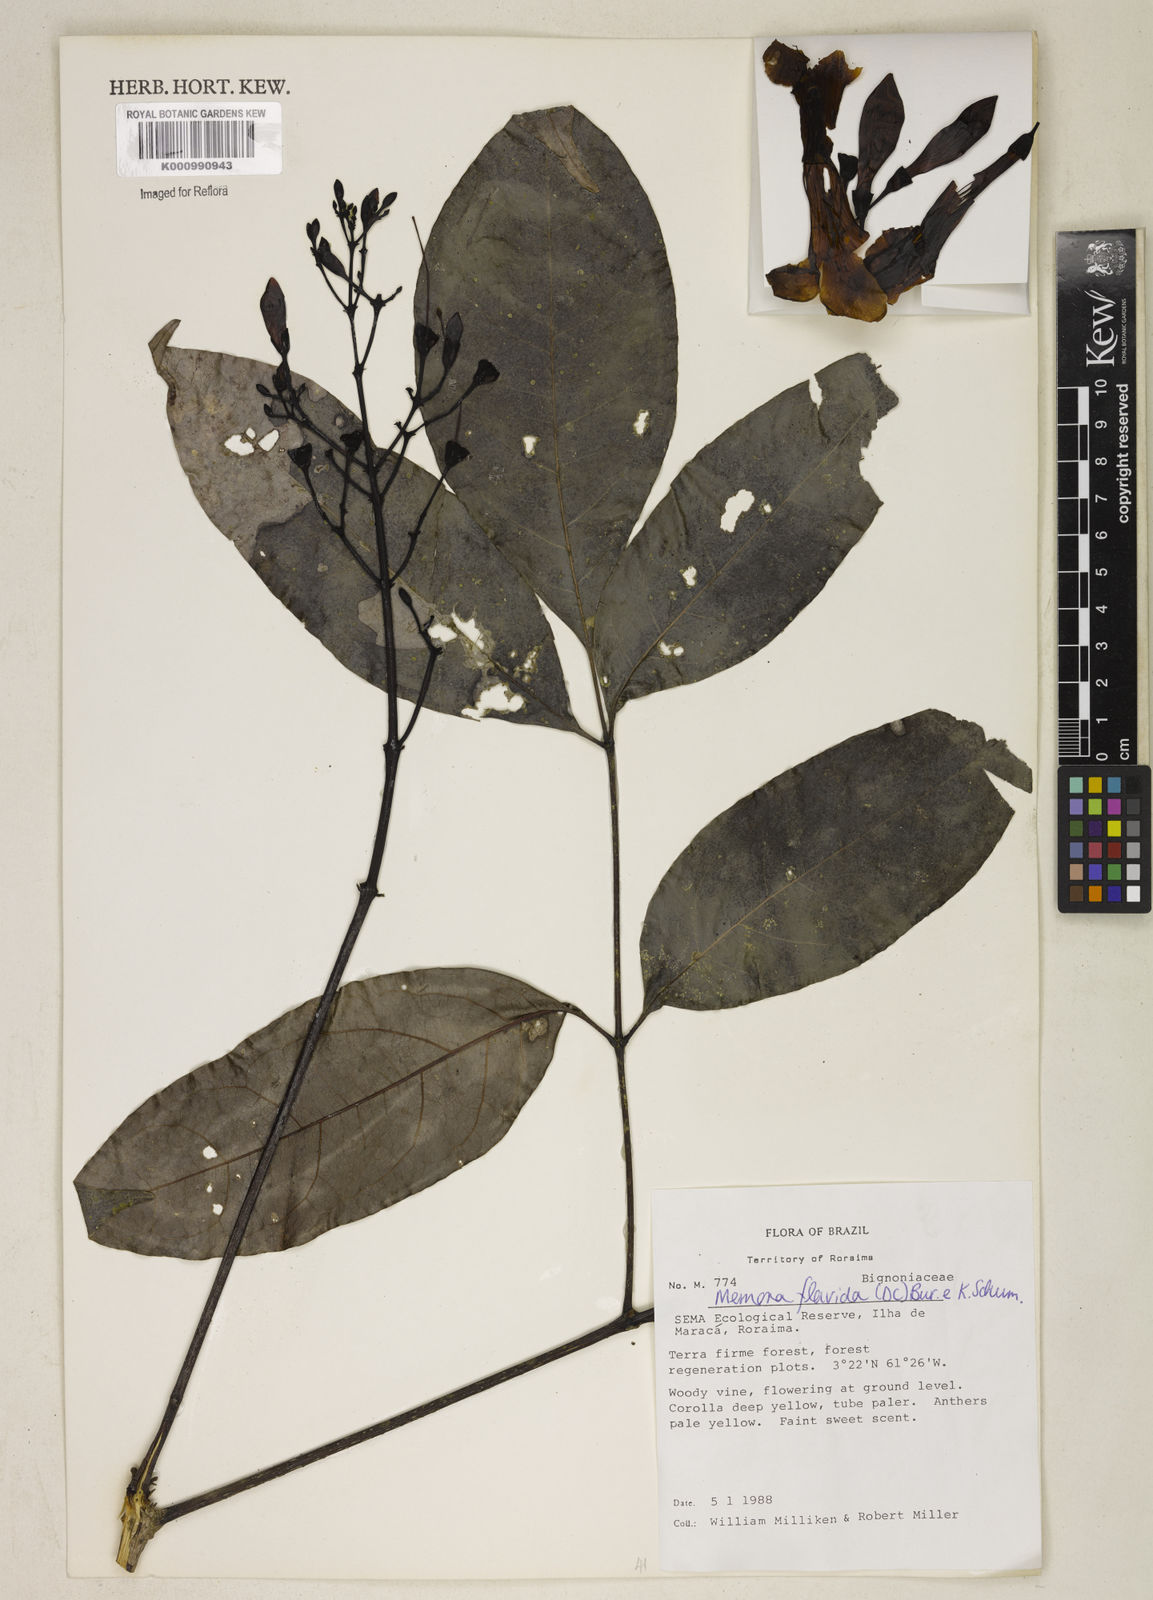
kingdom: Plantae
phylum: Tracheophyta
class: Magnoliopsida
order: Lamiales
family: Bignoniaceae
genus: Adenocalymma
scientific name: Adenocalymma neoflavidum
